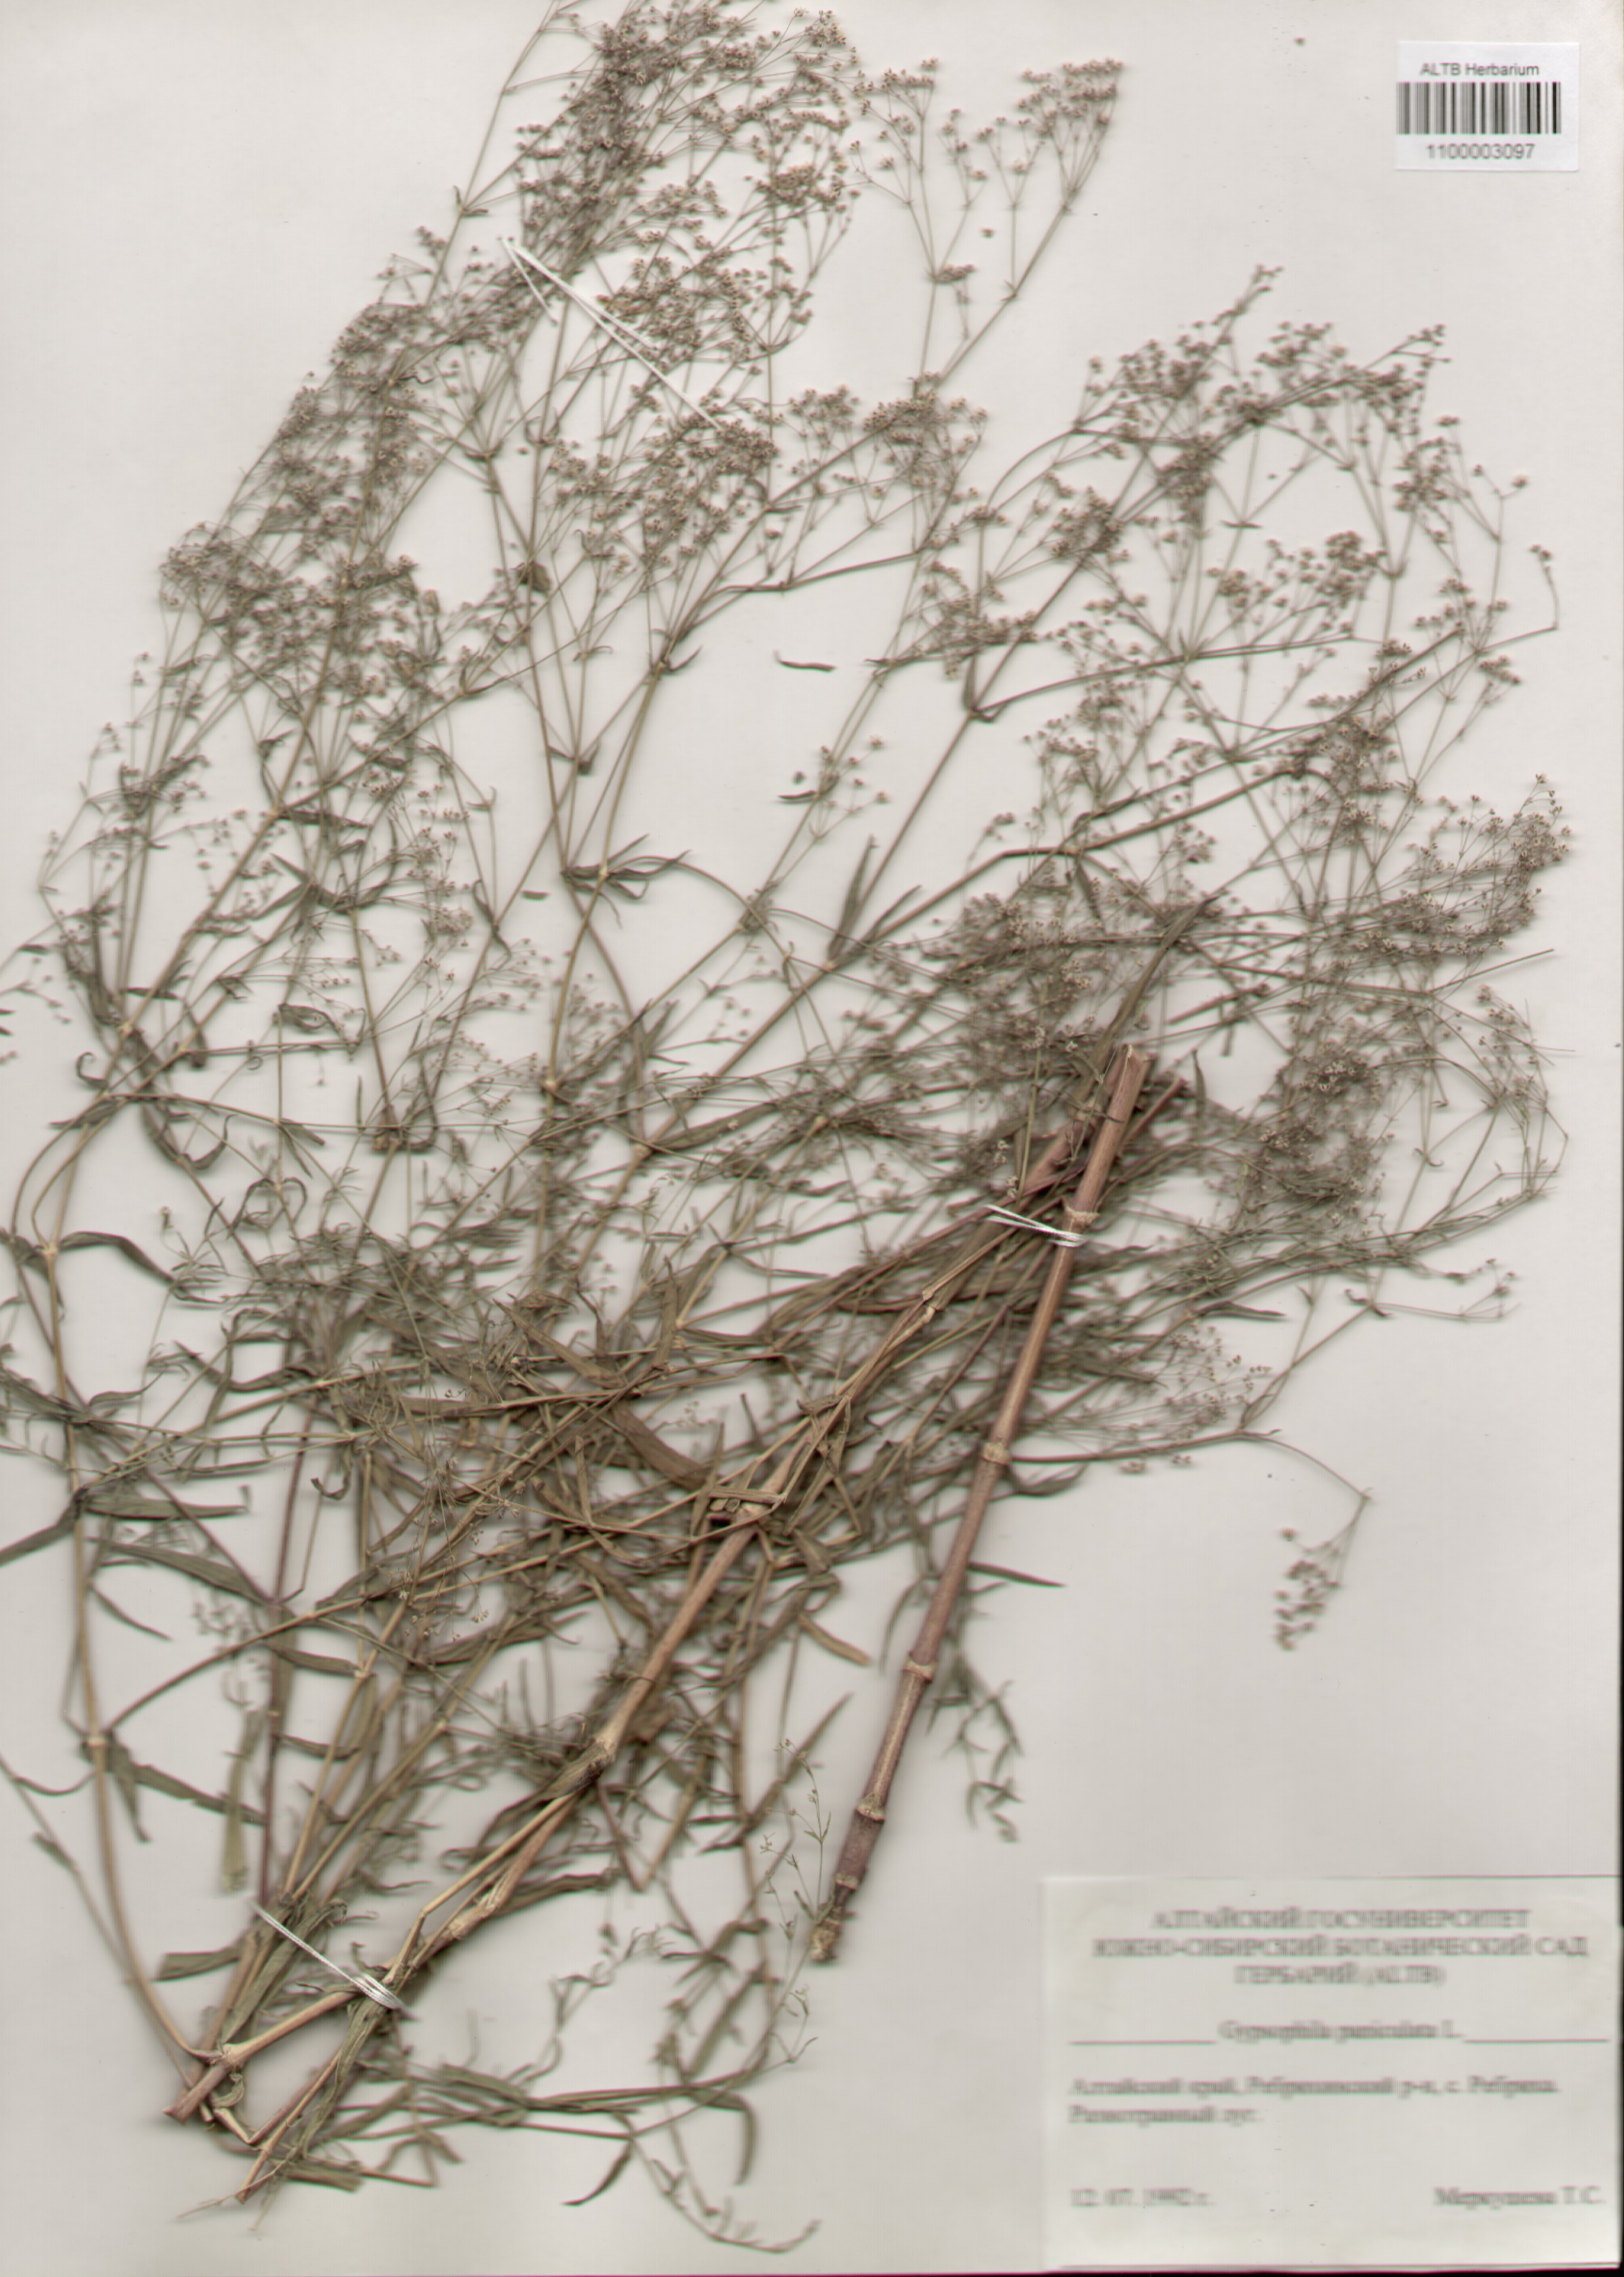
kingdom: Plantae
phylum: Tracheophyta
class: Magnoliopsida
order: Caryophyllales
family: Caryophyllaceae
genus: Gypsophila
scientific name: Gypsophila paniculata
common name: Baby's-breath
